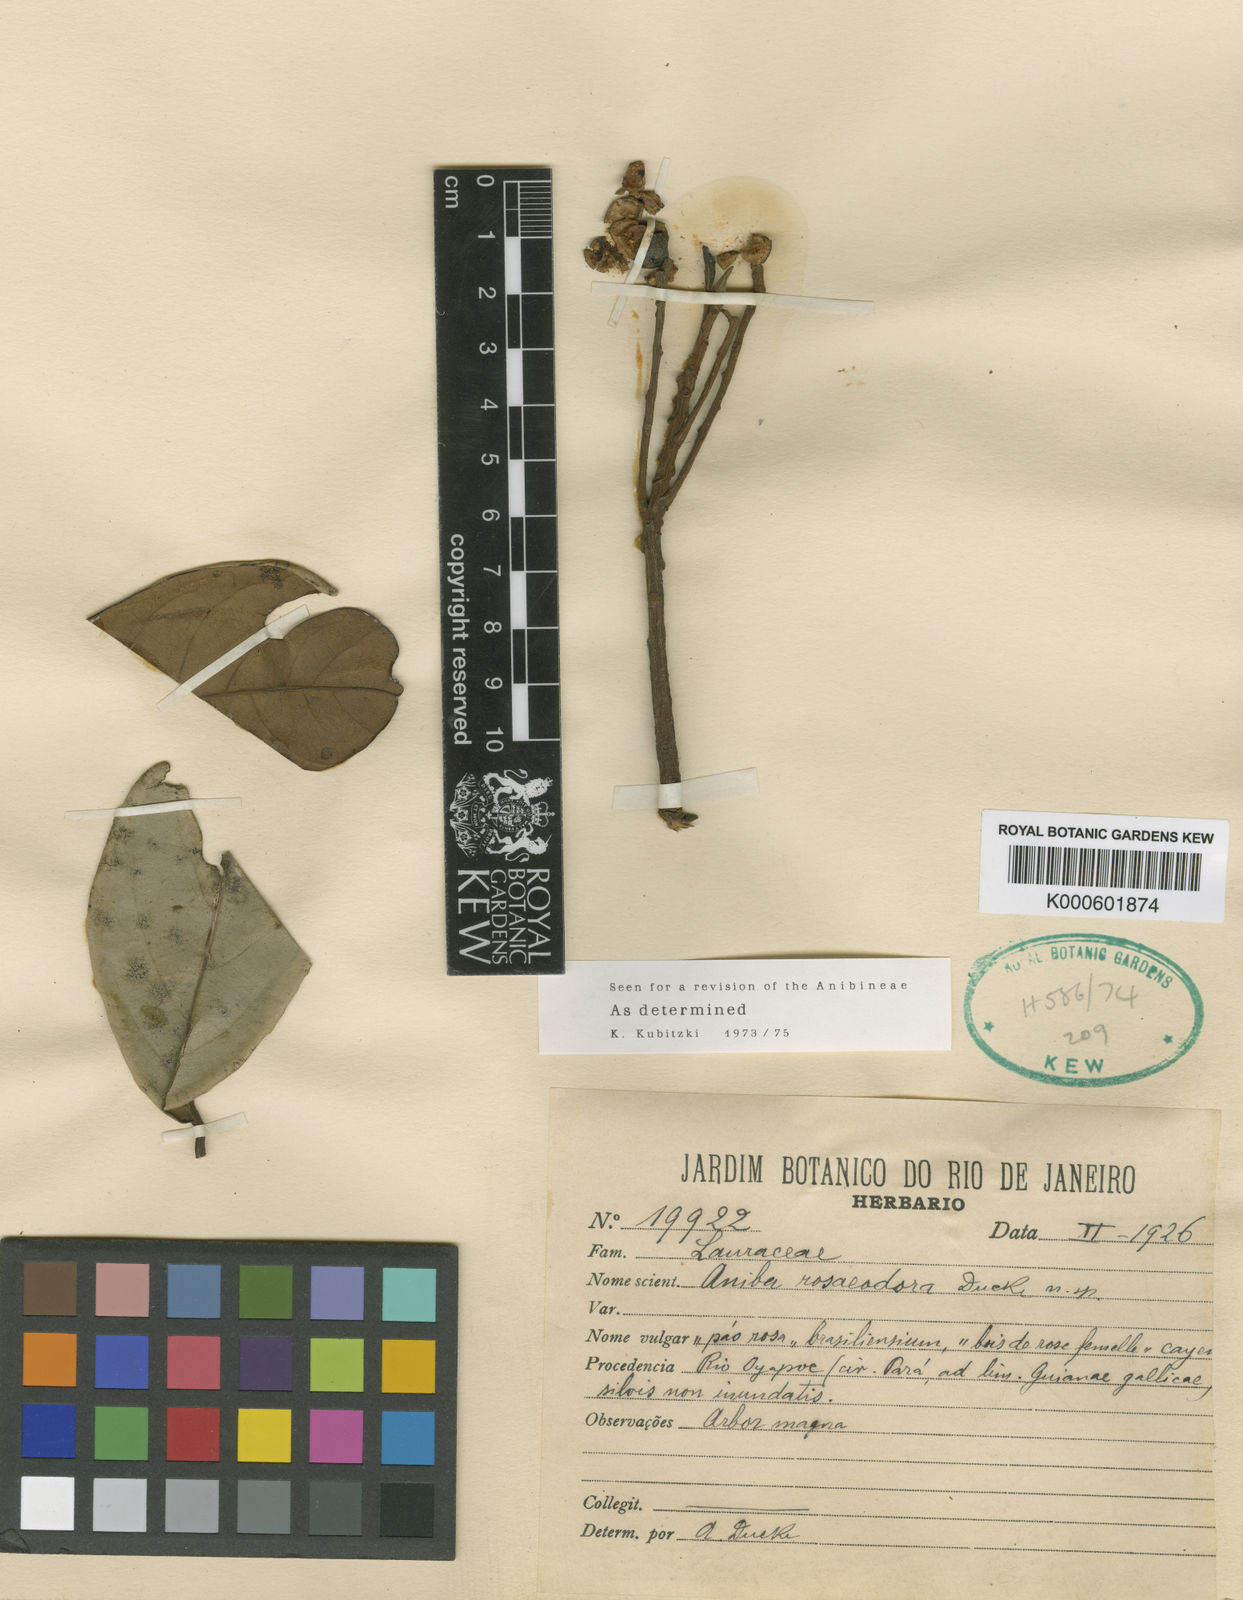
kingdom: Plantae
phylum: Tracheophyta
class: Magnoliopsida
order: Laurales
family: Lauraceae
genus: Aniba
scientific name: Aniba
